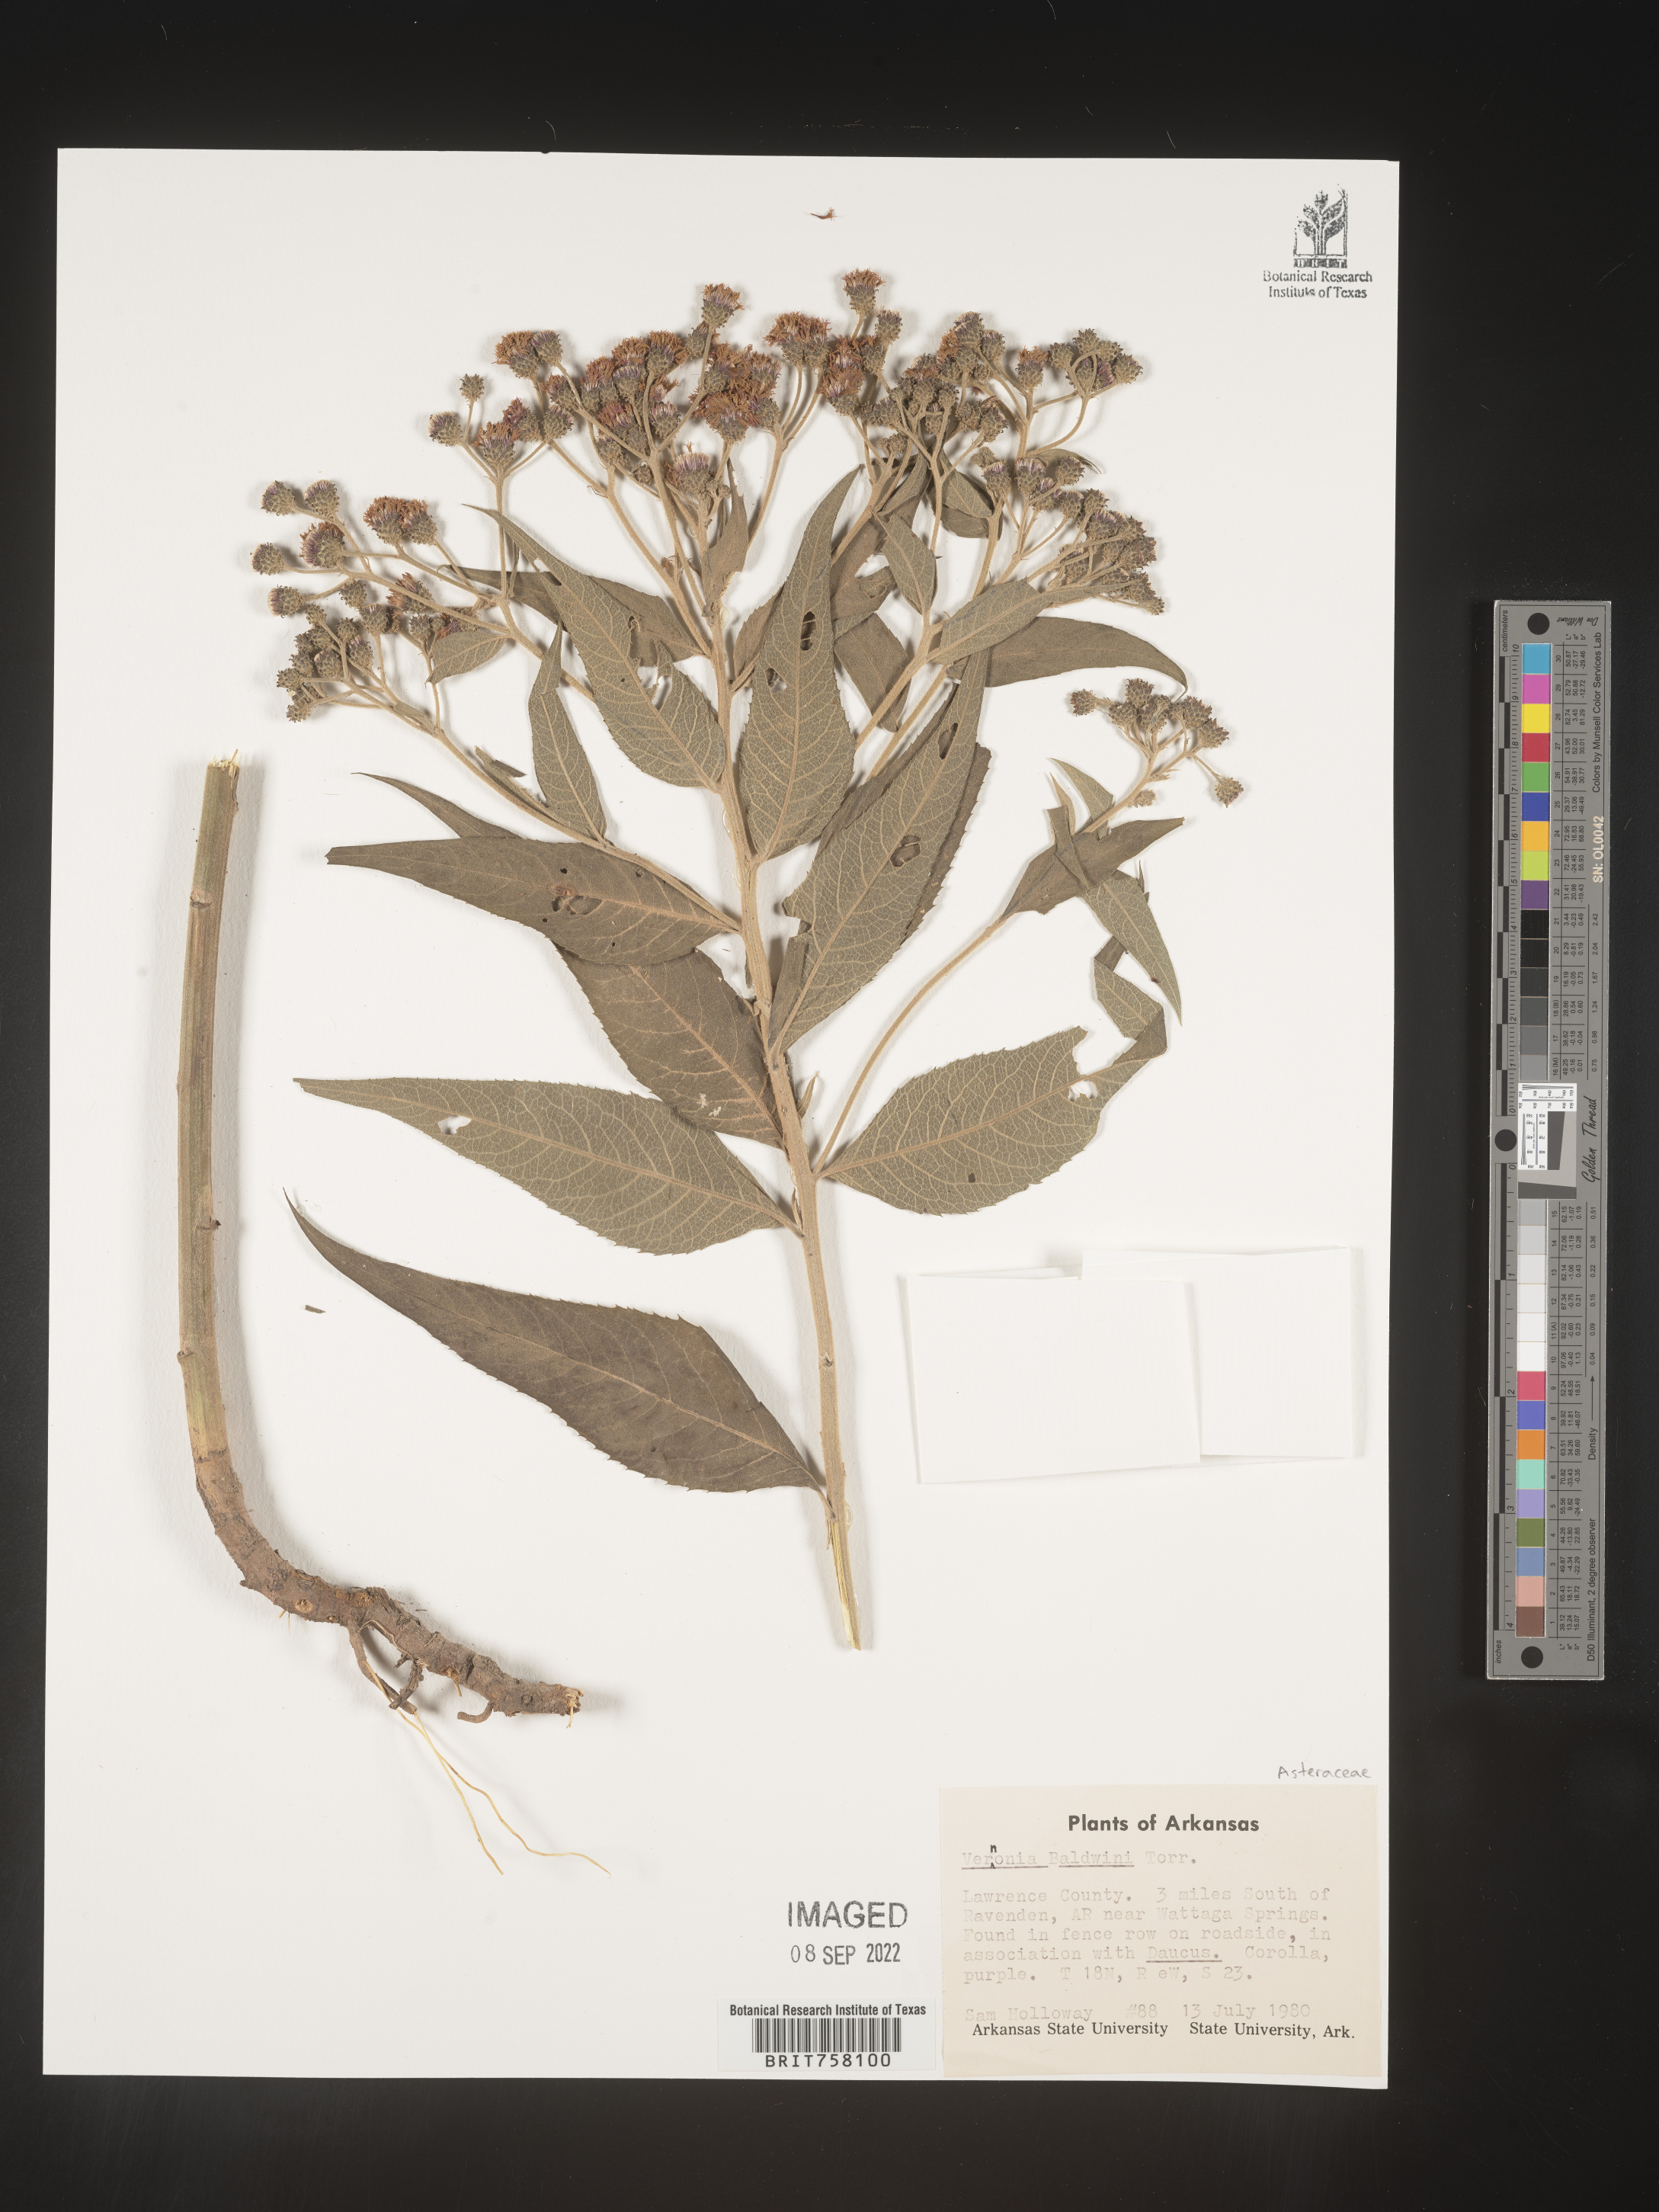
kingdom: Plantae
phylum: Tracheophyta
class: Magnoliopsida
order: Asterales
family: Asteraceae
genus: Vernonia
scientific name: Vernonia baldwinii
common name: Western ironweed
